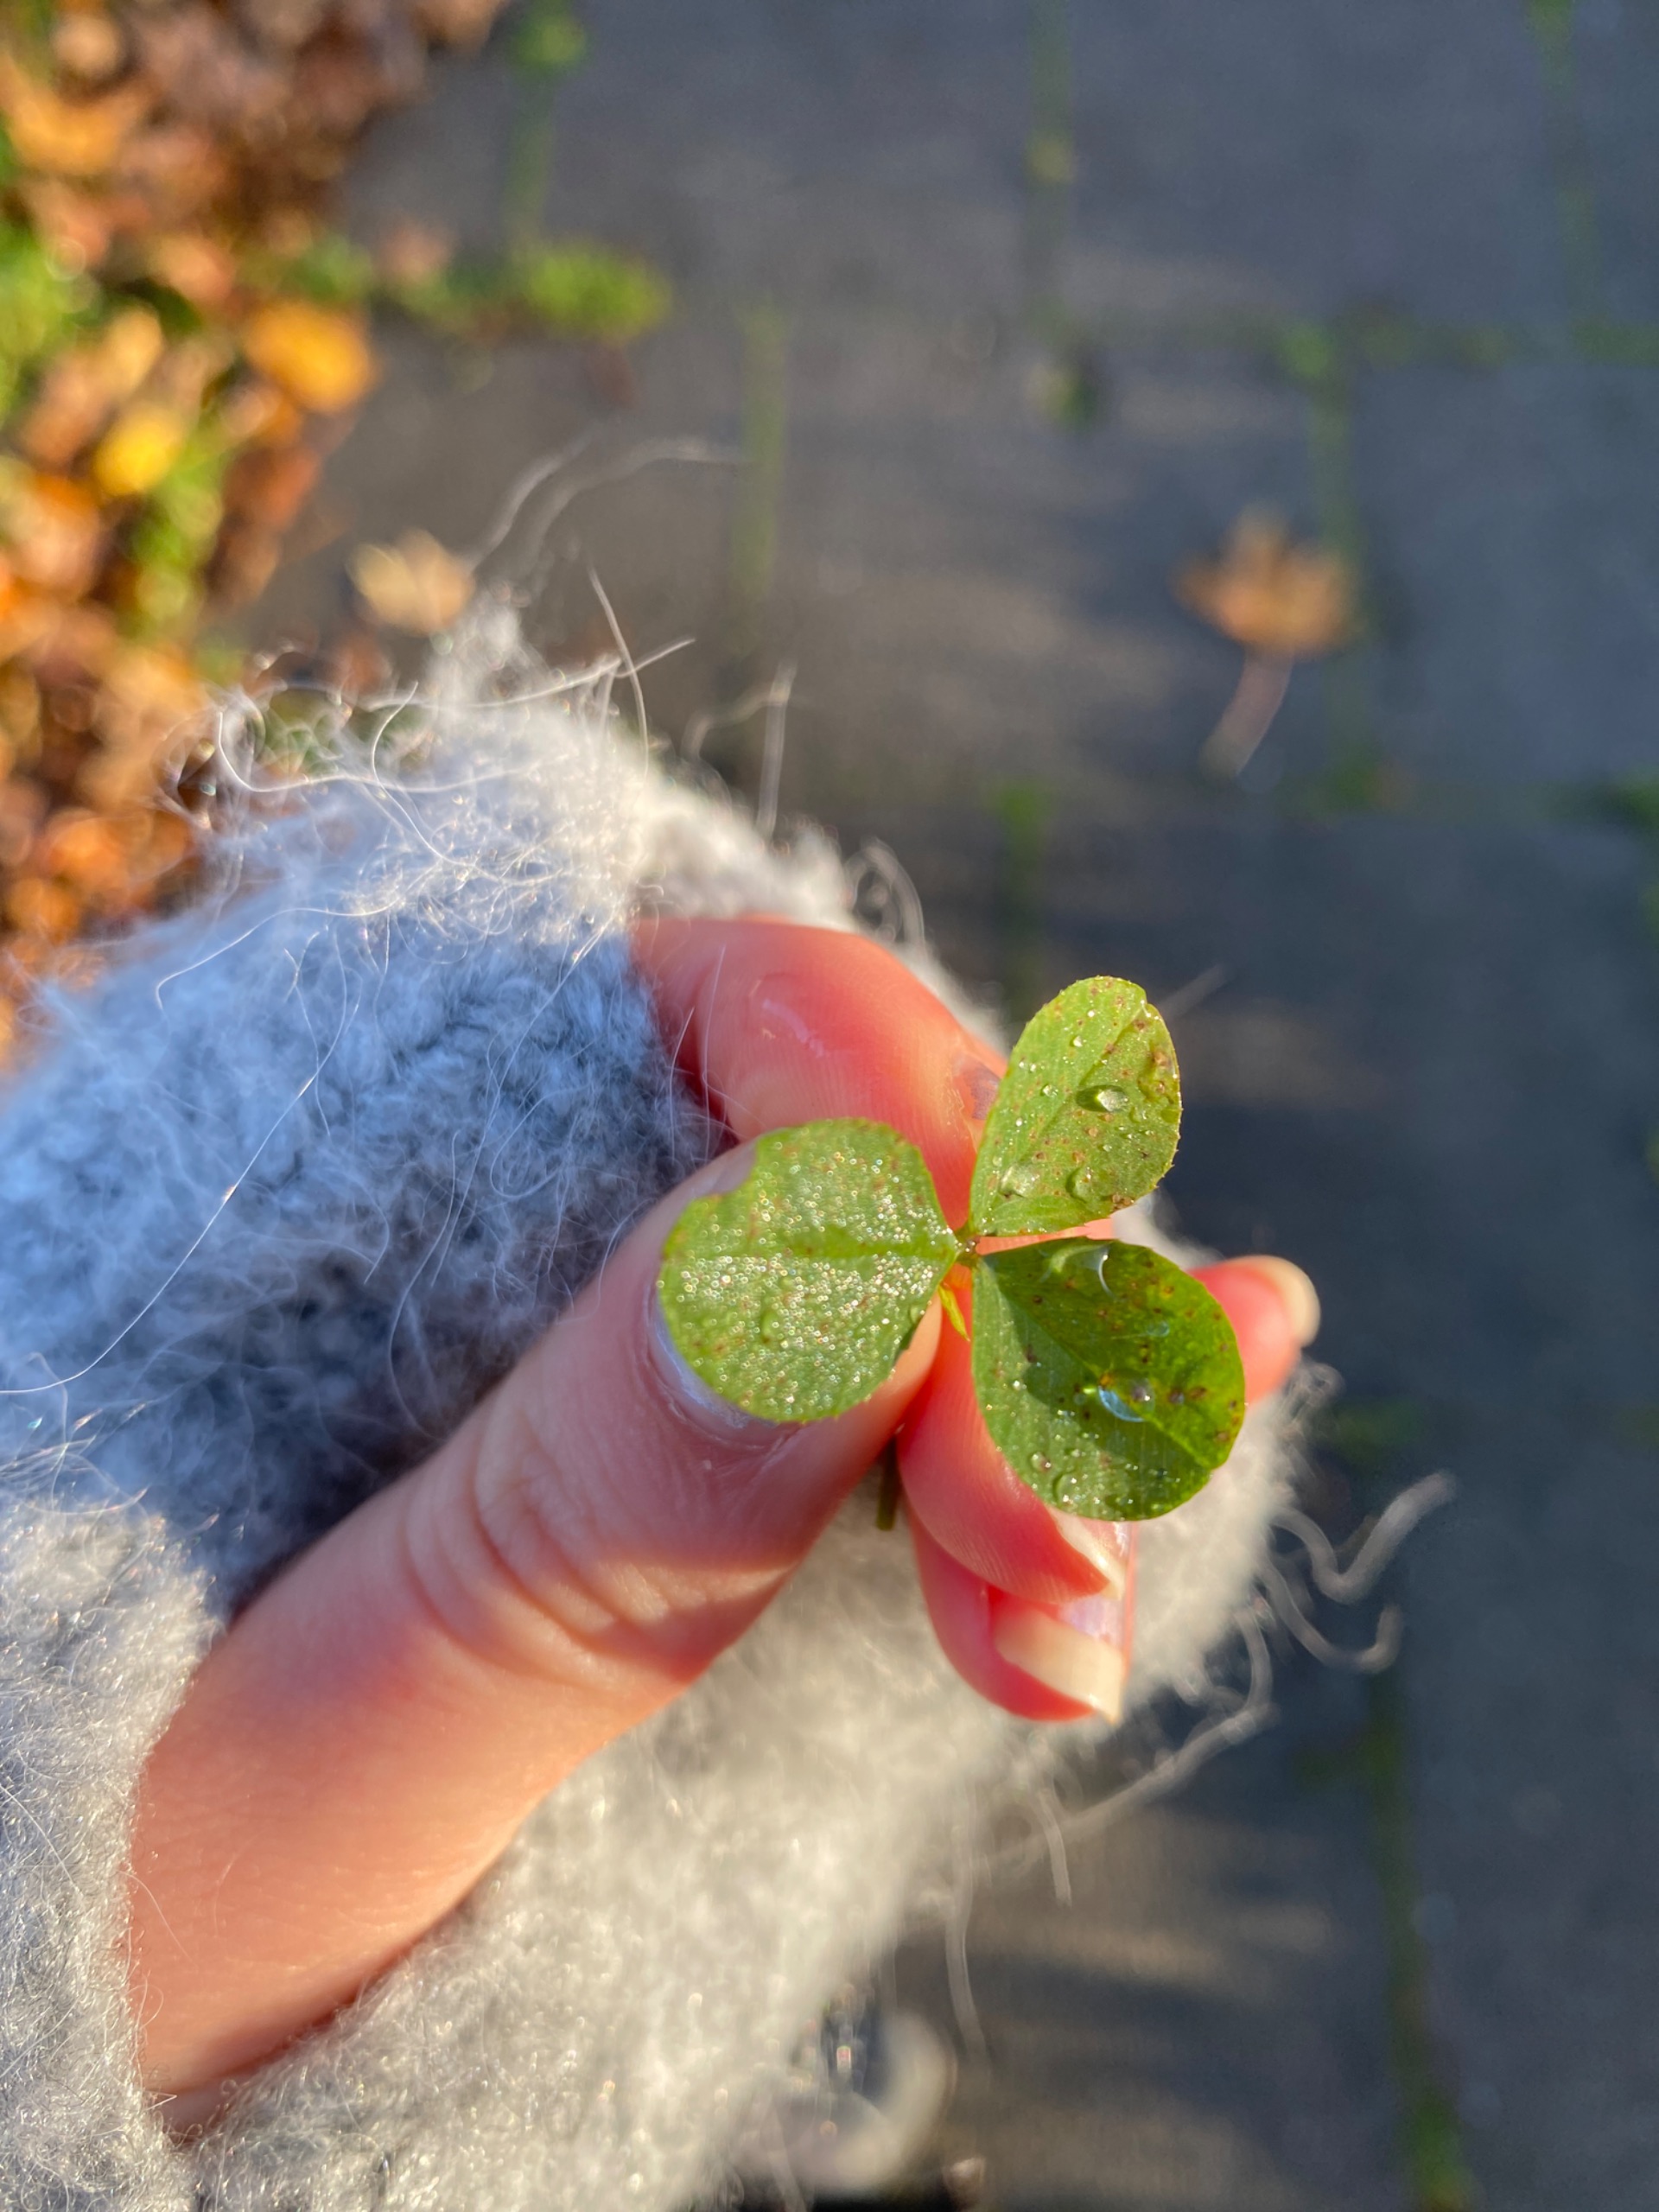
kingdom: Plantae
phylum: Tracheophyta
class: Magnoliopsida
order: Fabales
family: Fabaceae
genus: Trifolium
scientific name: Trifolium
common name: Kløverslægten
